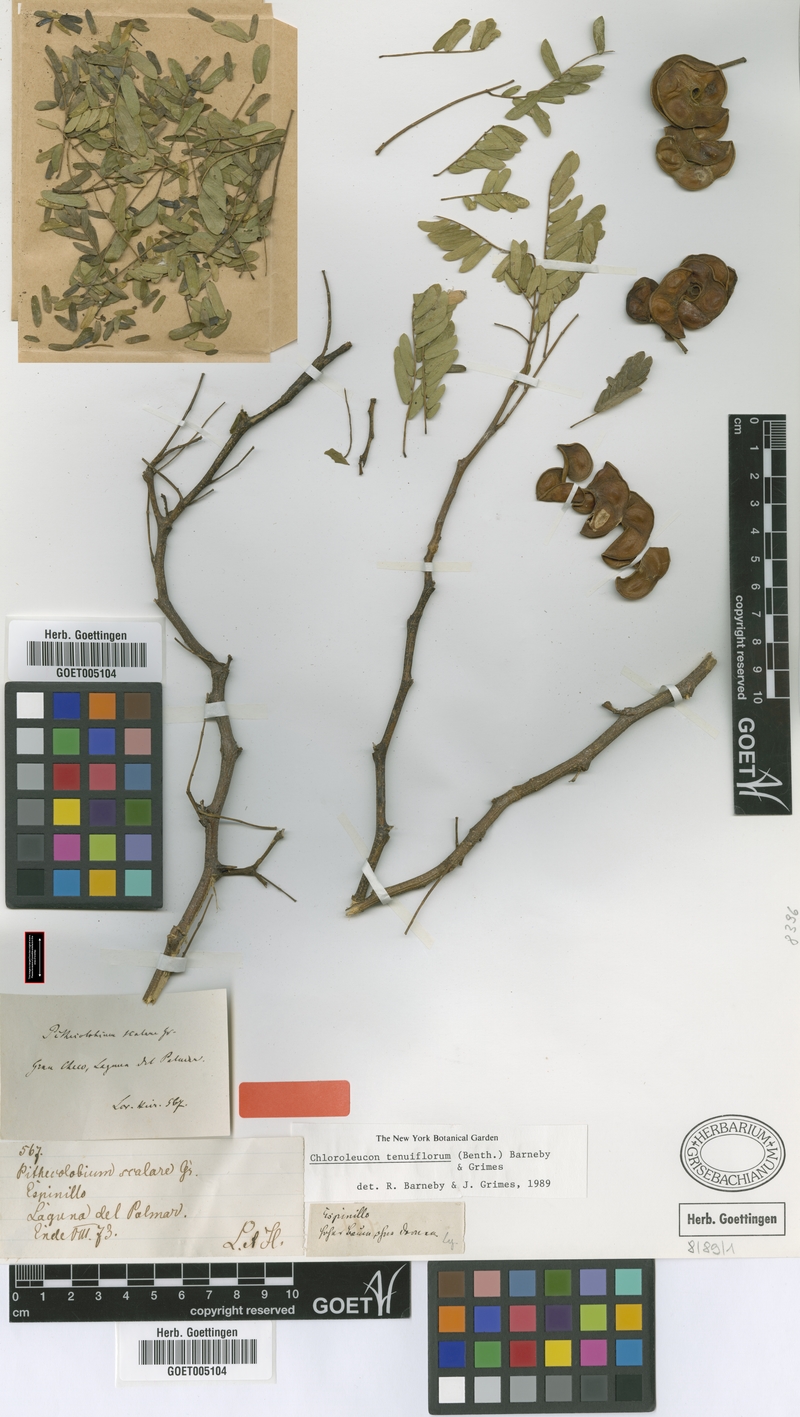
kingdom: Plantae
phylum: Tracheophyta
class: Magnoliopsida
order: Fabales
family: Fabaceae
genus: Chloroleucon
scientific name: Chloroleucon tenuiflorum
